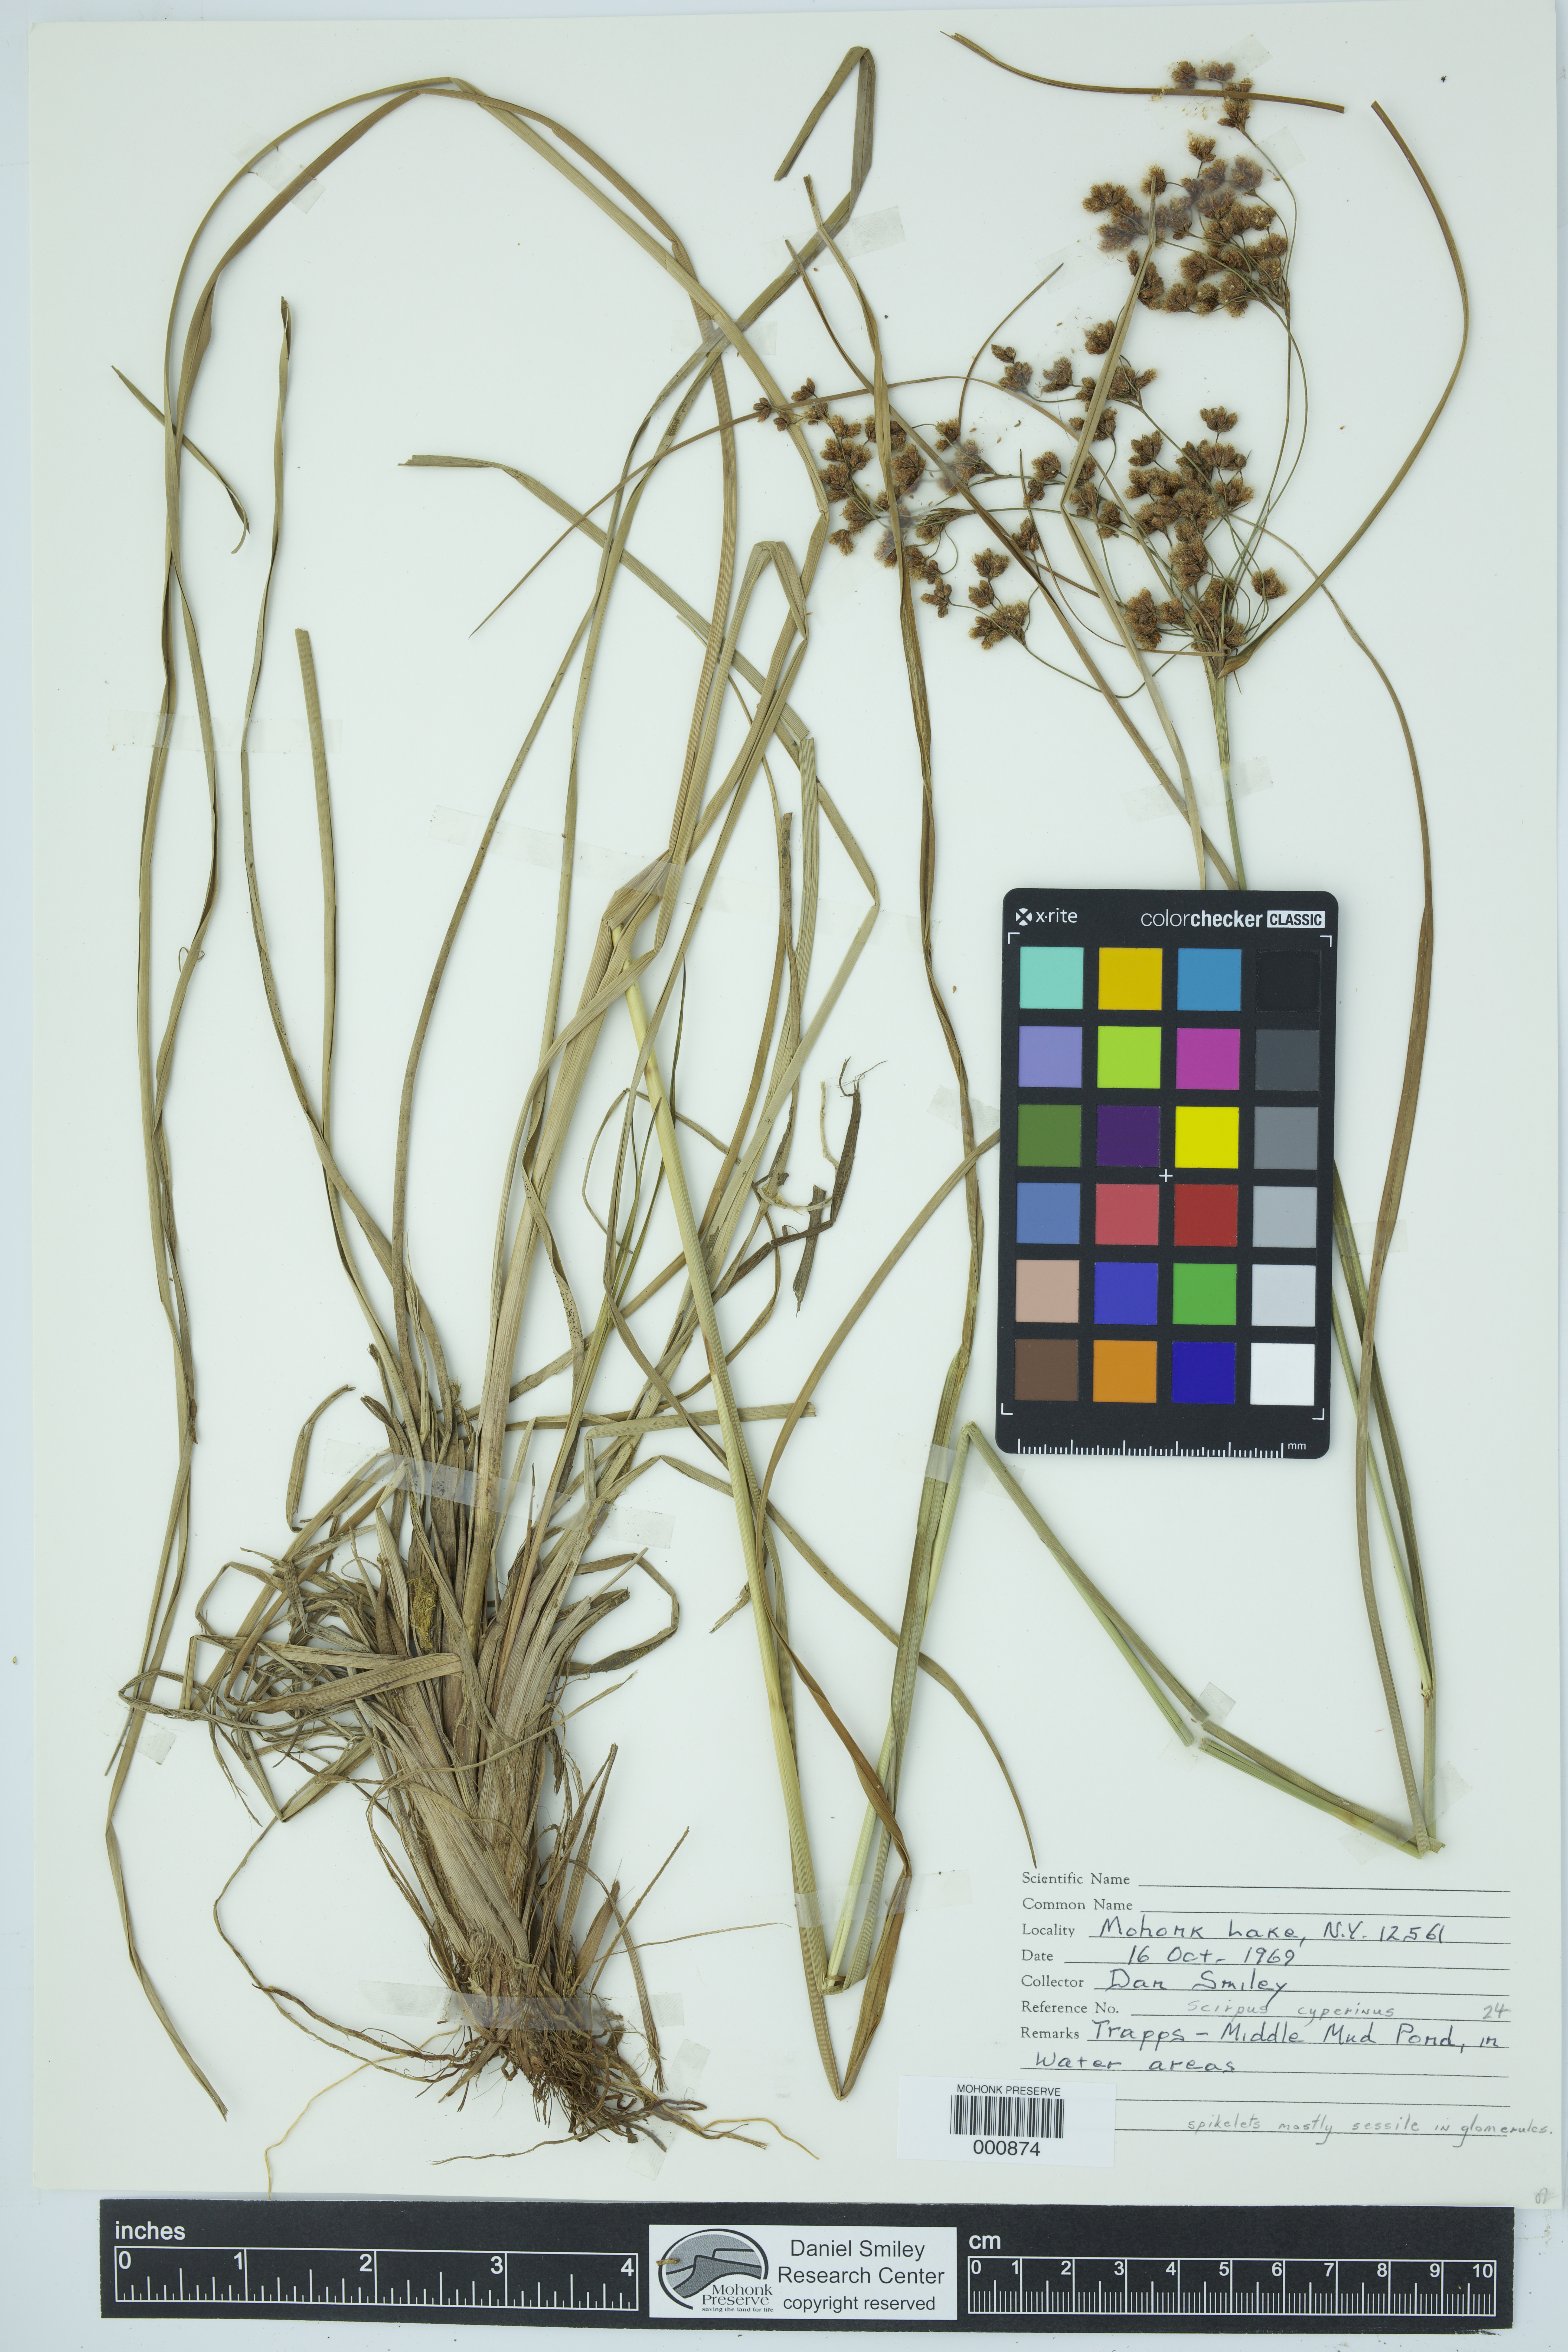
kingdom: Plantae
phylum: Tracheophyta
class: Liliopsida
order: Poales
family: Cyperaceae
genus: Scirpus
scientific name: Scirpus cyperinus
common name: Black-sheathed bulrush
